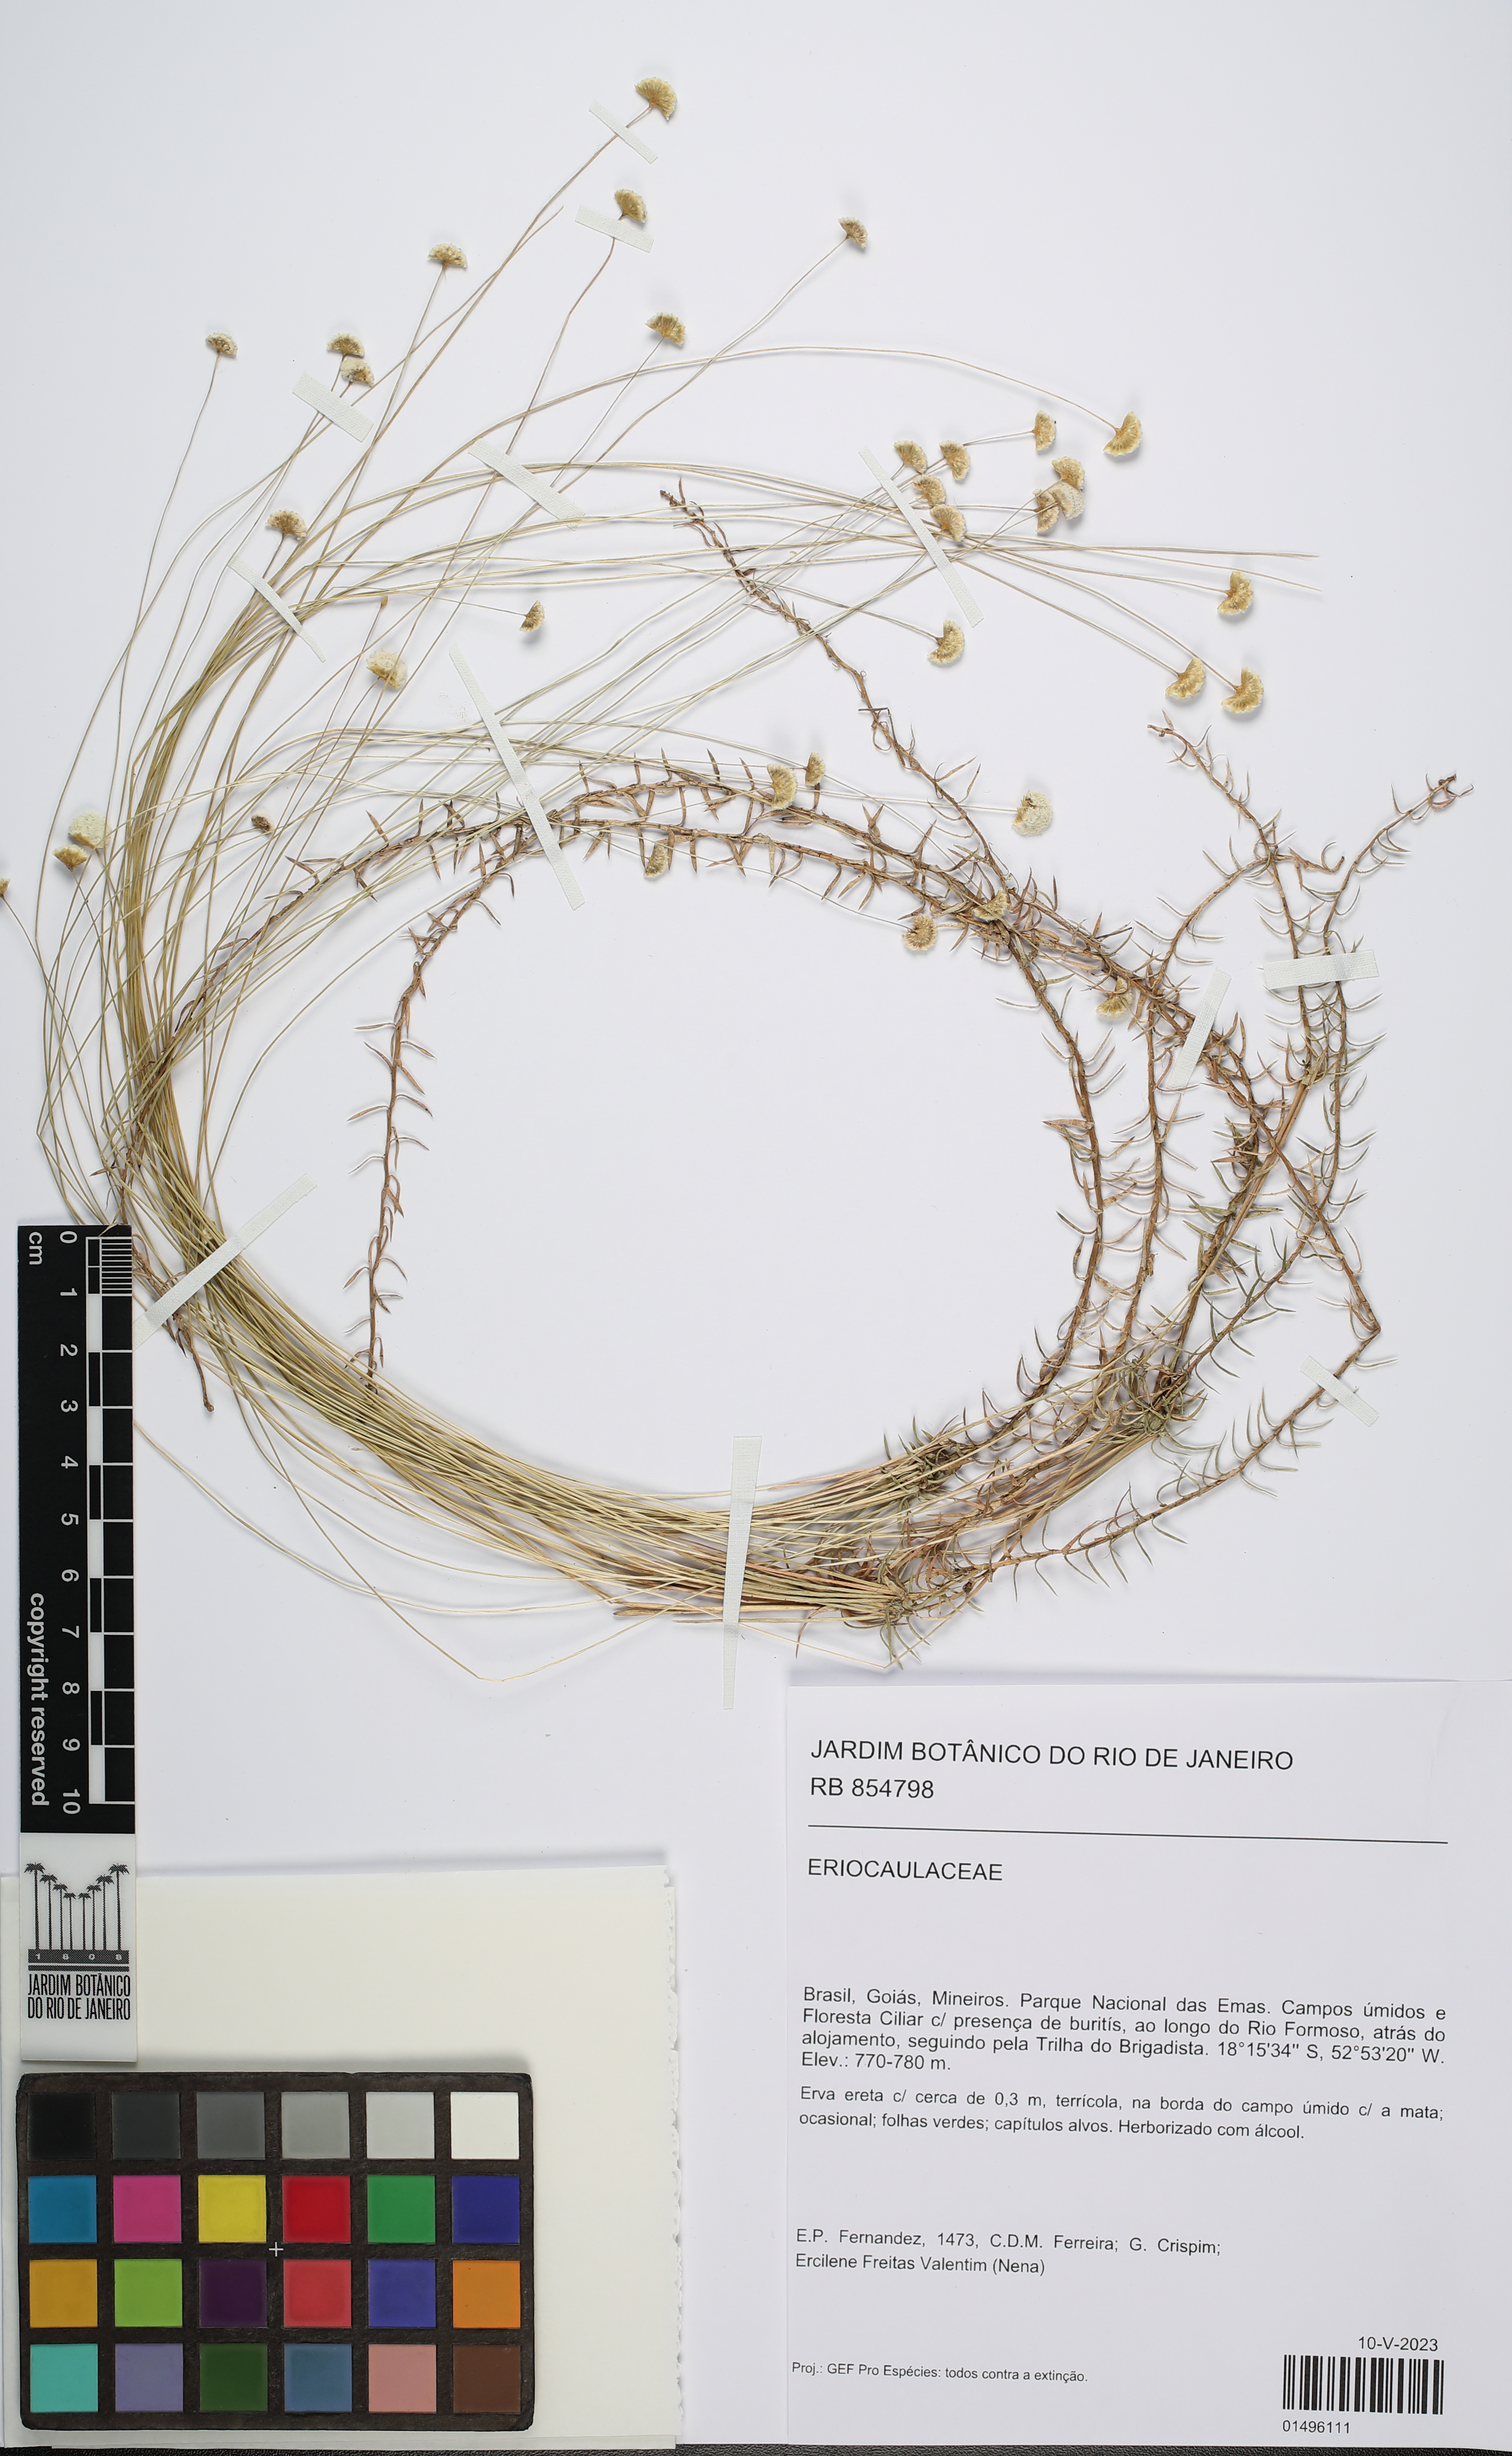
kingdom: Plantae
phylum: Tracheophyta
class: Liliopsida
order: Poales
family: Eriocaulaceae
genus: Paepalanthus
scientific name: Paepalanthus flaccidus
